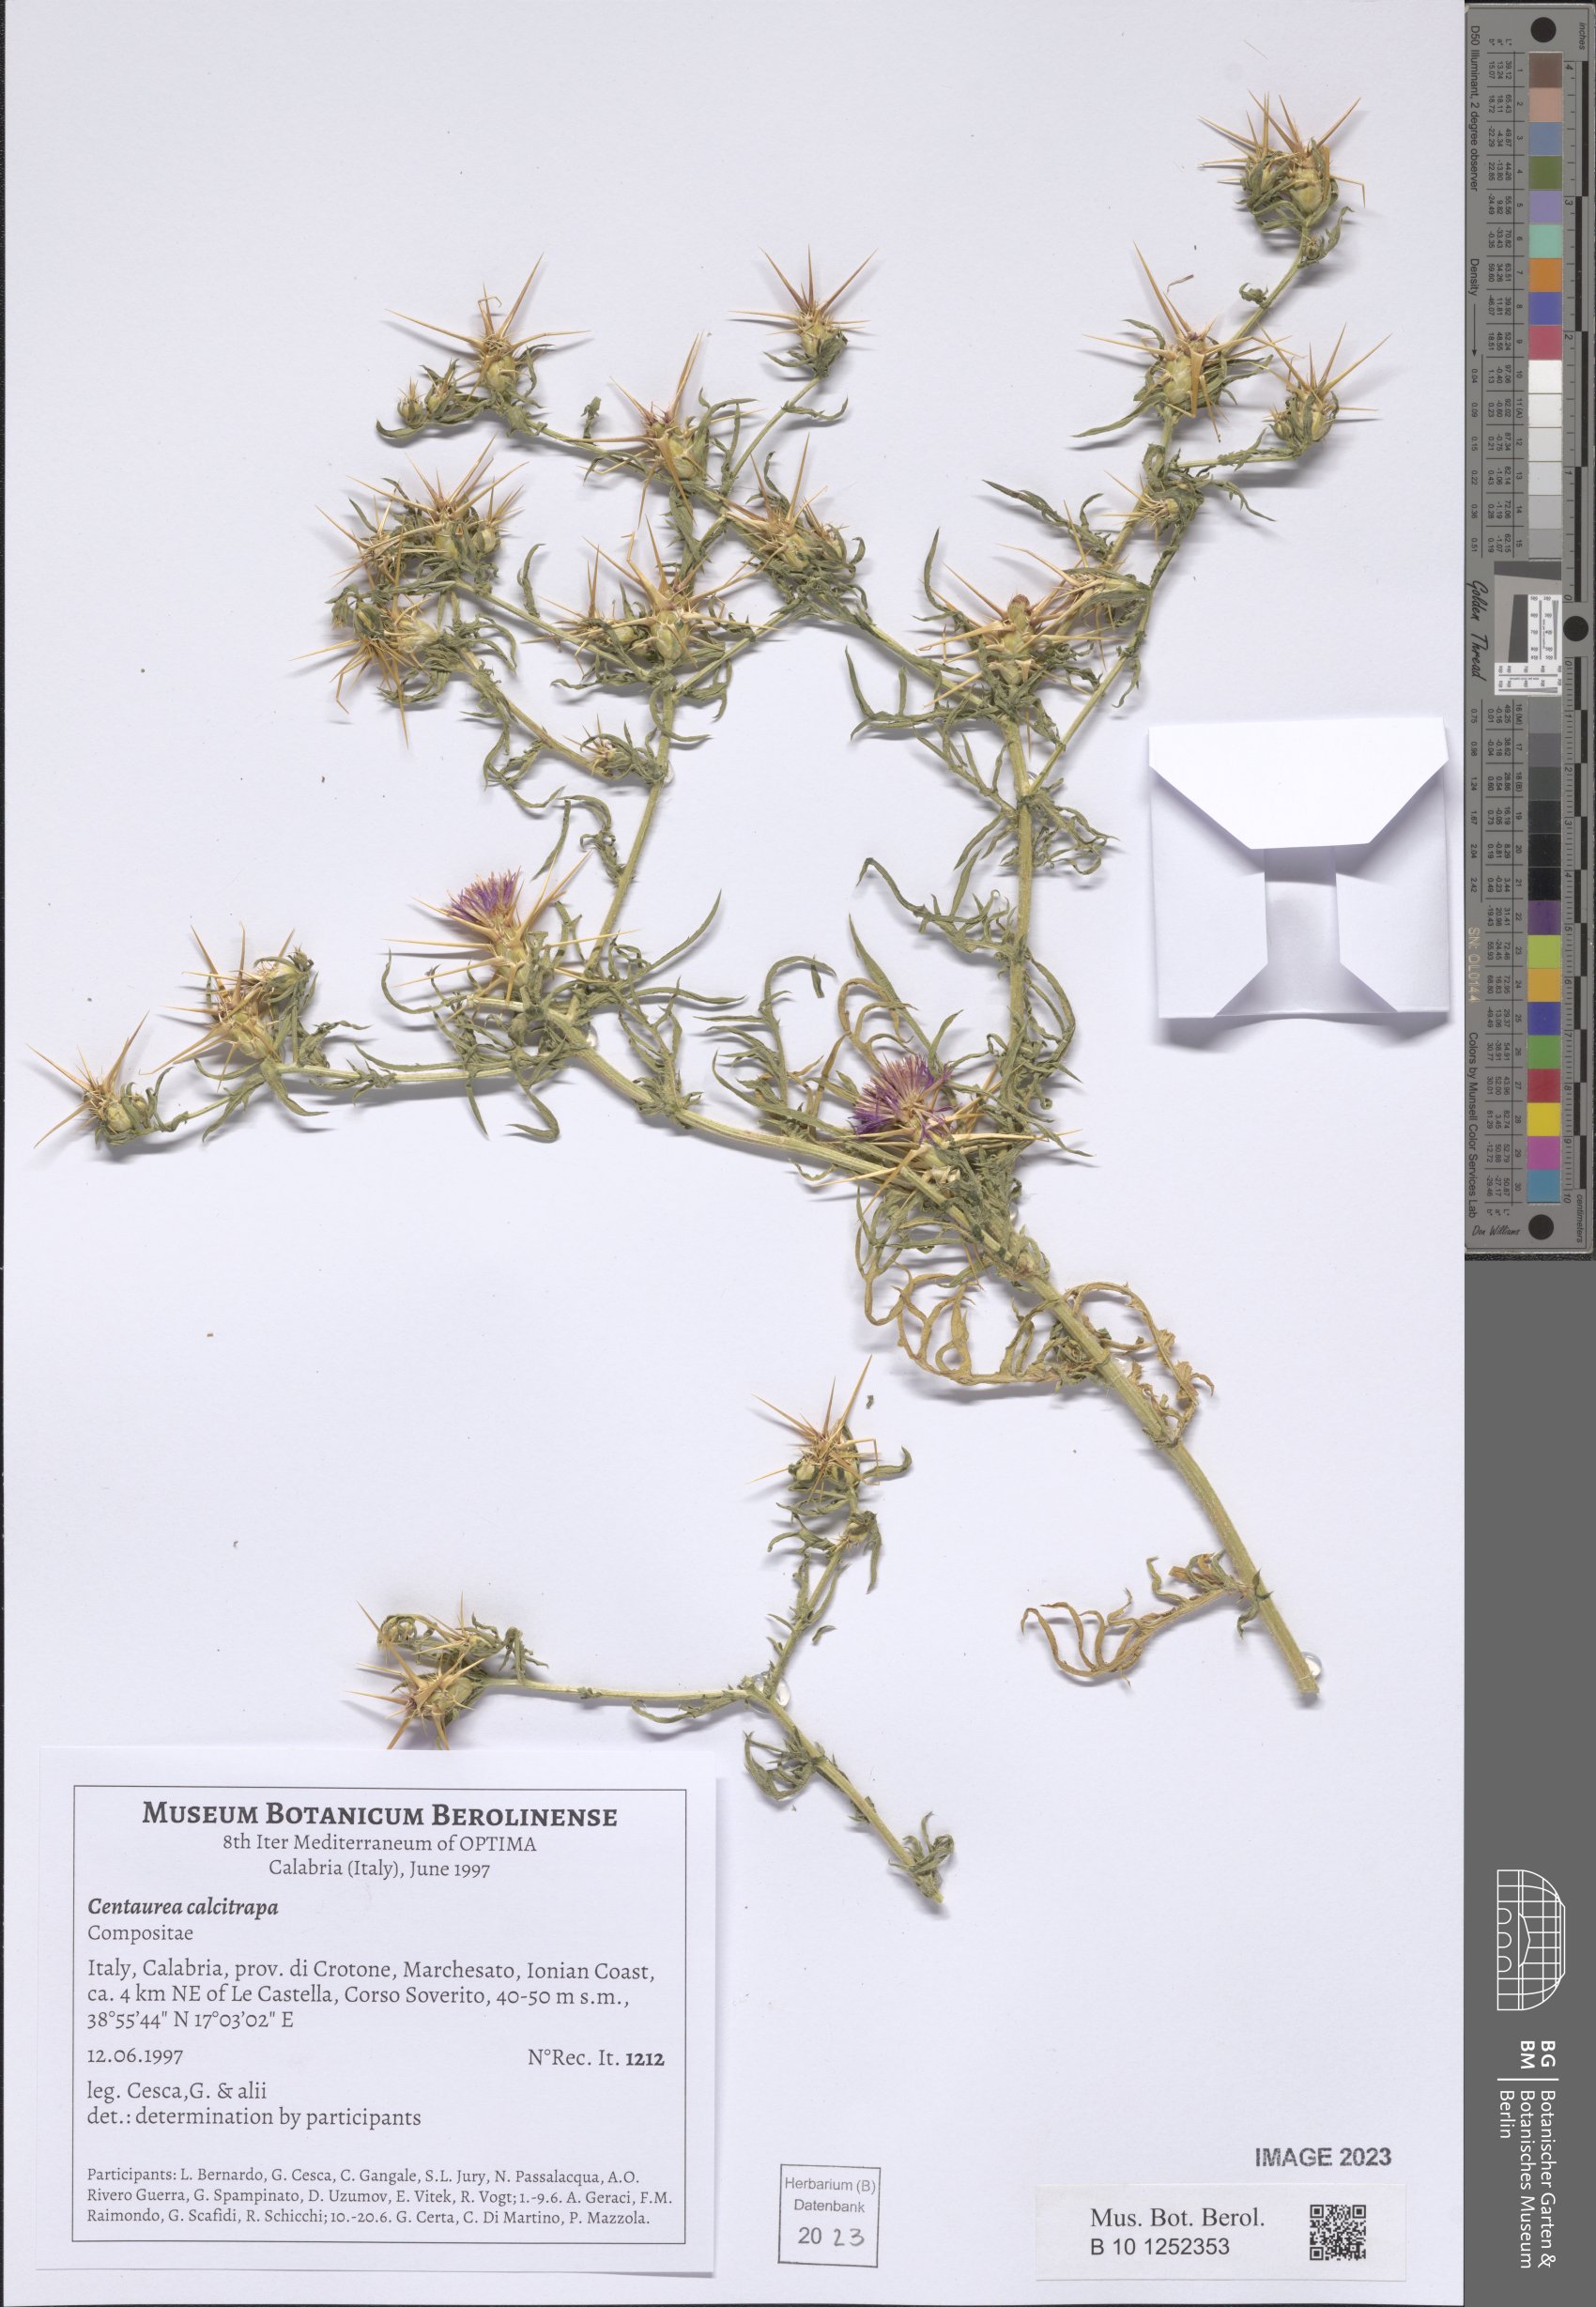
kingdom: Plantae
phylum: Tracheophyta
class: Magnoliopsida
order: Asterales
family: Asteraceae
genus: Centaurea
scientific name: Centaurea calcitrapa
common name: Red star-thistle
